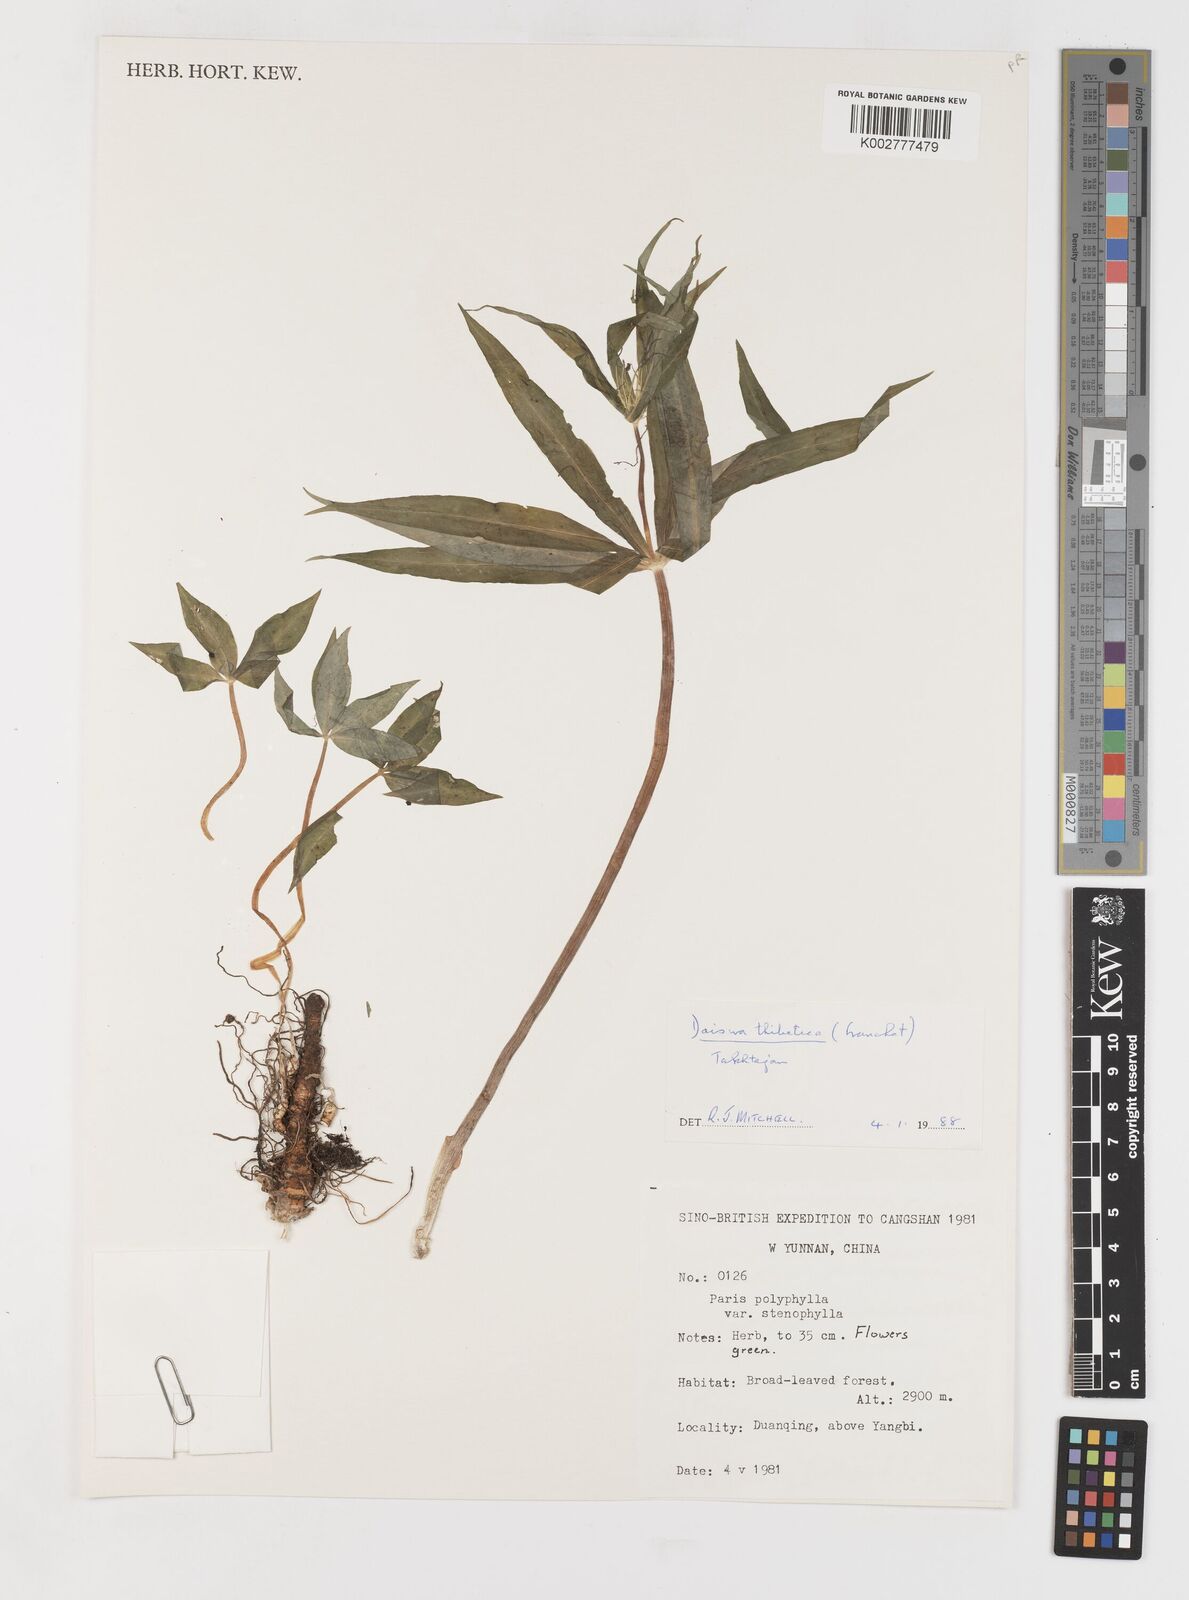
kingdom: Plantae
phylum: Tracheophyta
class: Liliopsida
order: Liliales
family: Melanthiaceae
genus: Paris
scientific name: Paris thibetica
